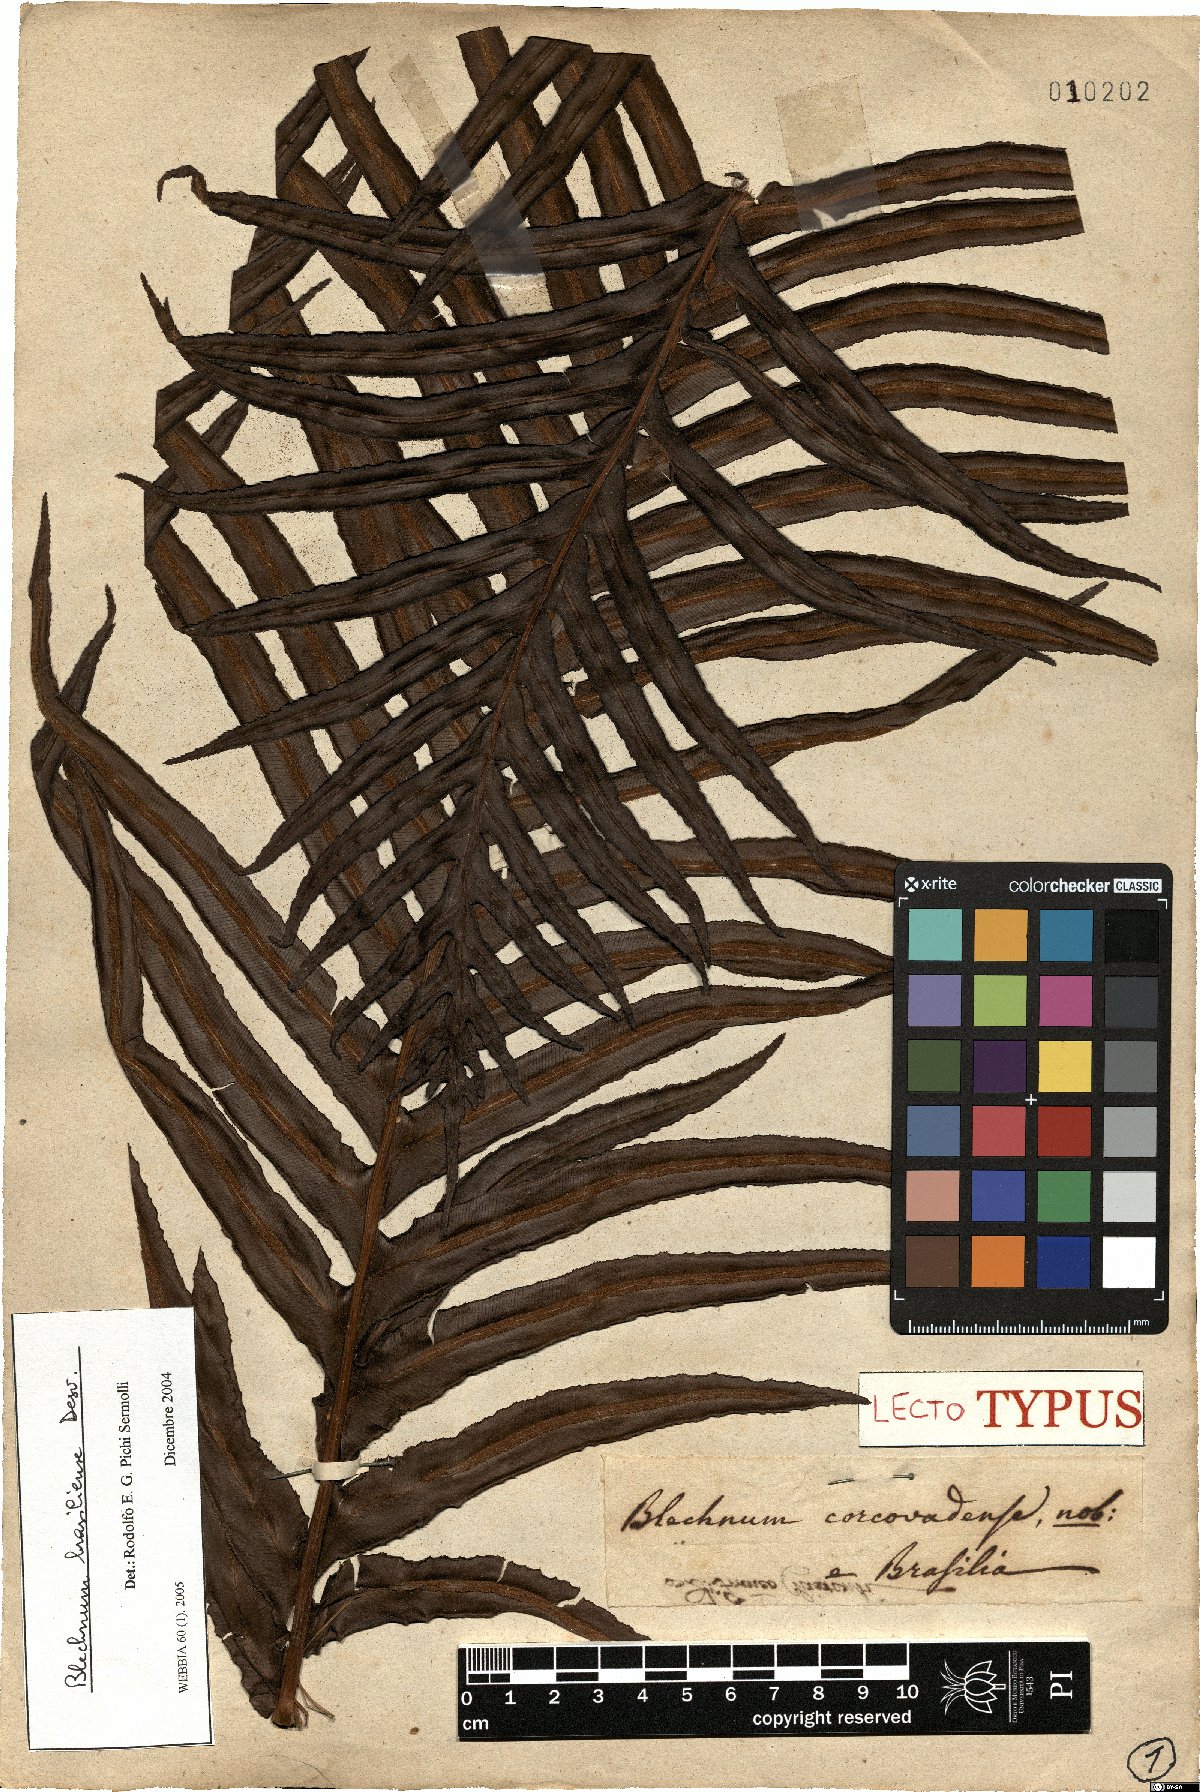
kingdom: Plantae
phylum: Tracheophyta
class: Polypodiopsida
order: Polypodiales
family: Blechnaceae
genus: Neoblechnum
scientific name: Neoblechnum brasiliense
